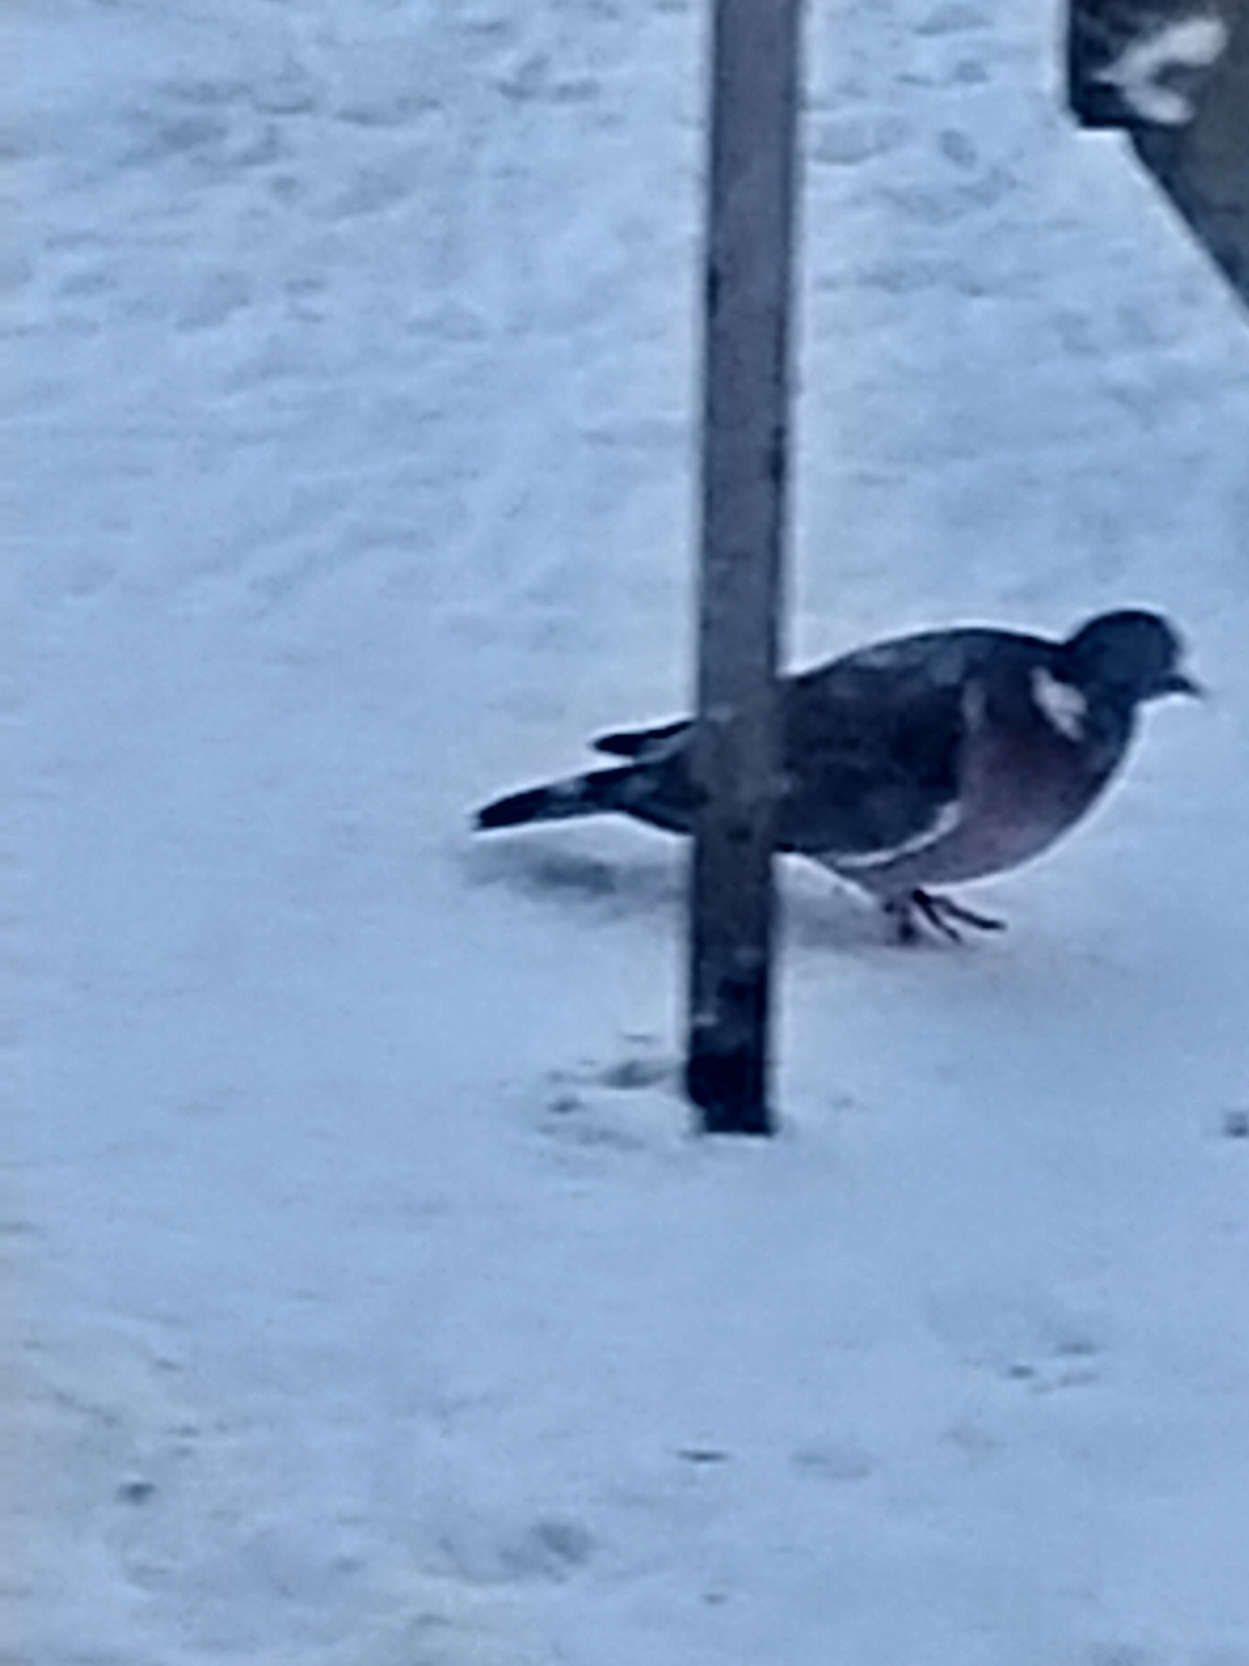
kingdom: Animalia
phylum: Chordata
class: Aves
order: Columbiformes
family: Columbidae
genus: Columba
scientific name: Columba palumbus
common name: Ringdue
